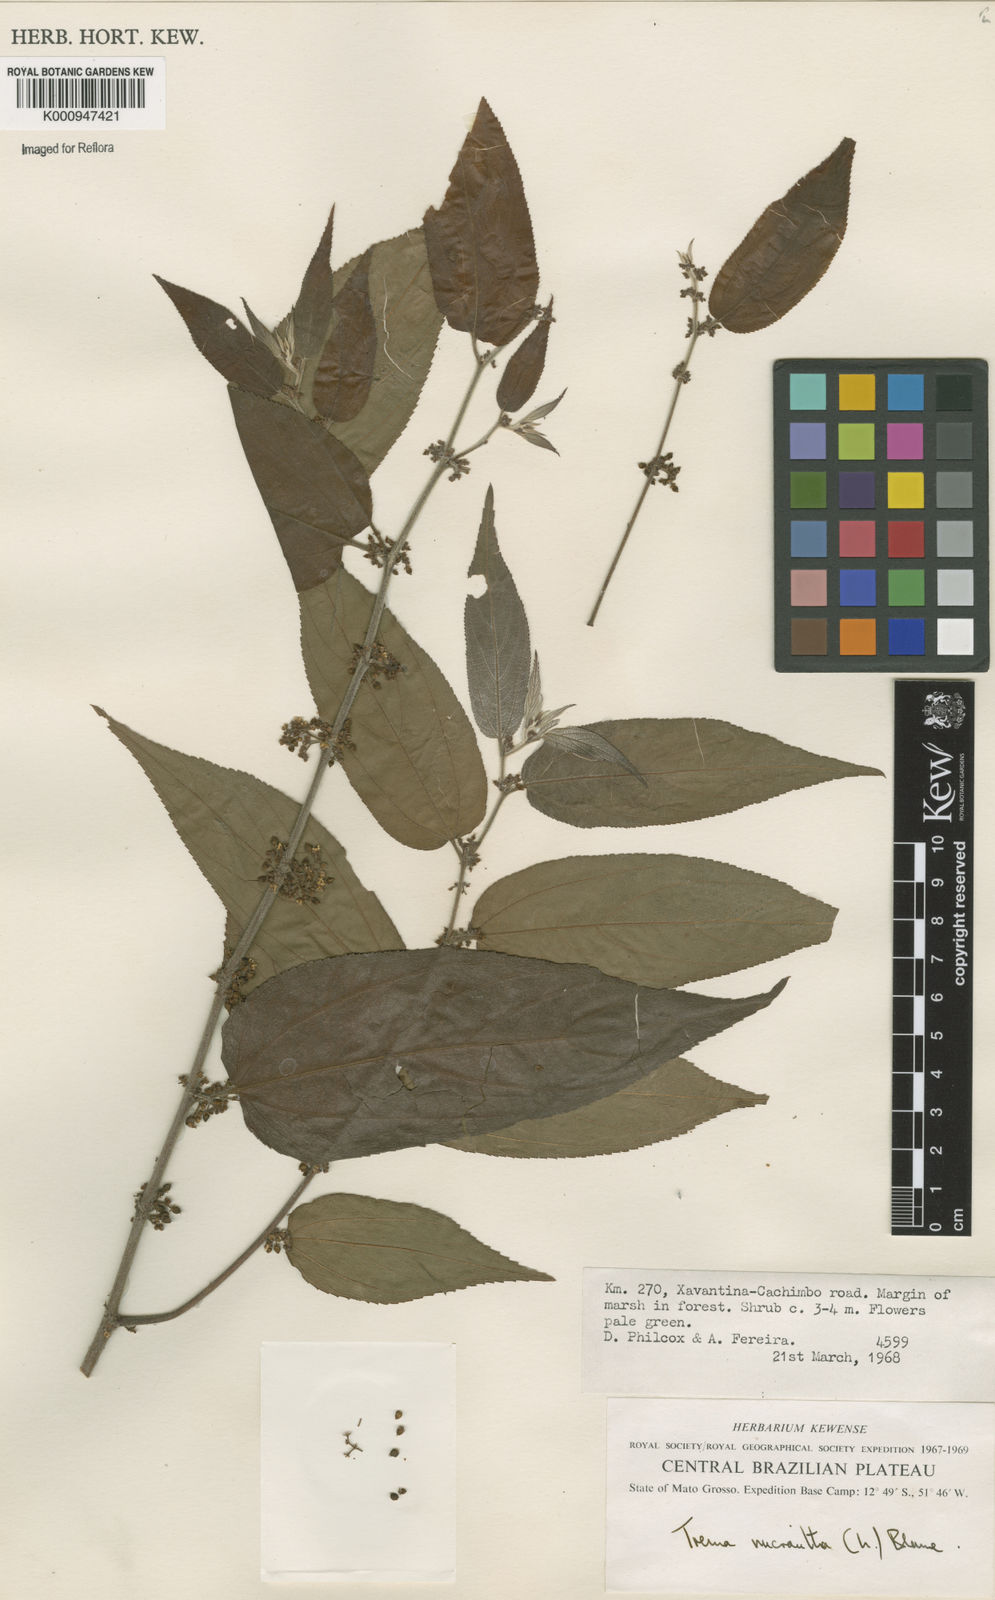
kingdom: Plantae
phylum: Tracheophyta
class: Magnoliopsida
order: Rosales
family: Cannabaceae
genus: Trema
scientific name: Trema micranthum
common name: Jamaican nettletree
